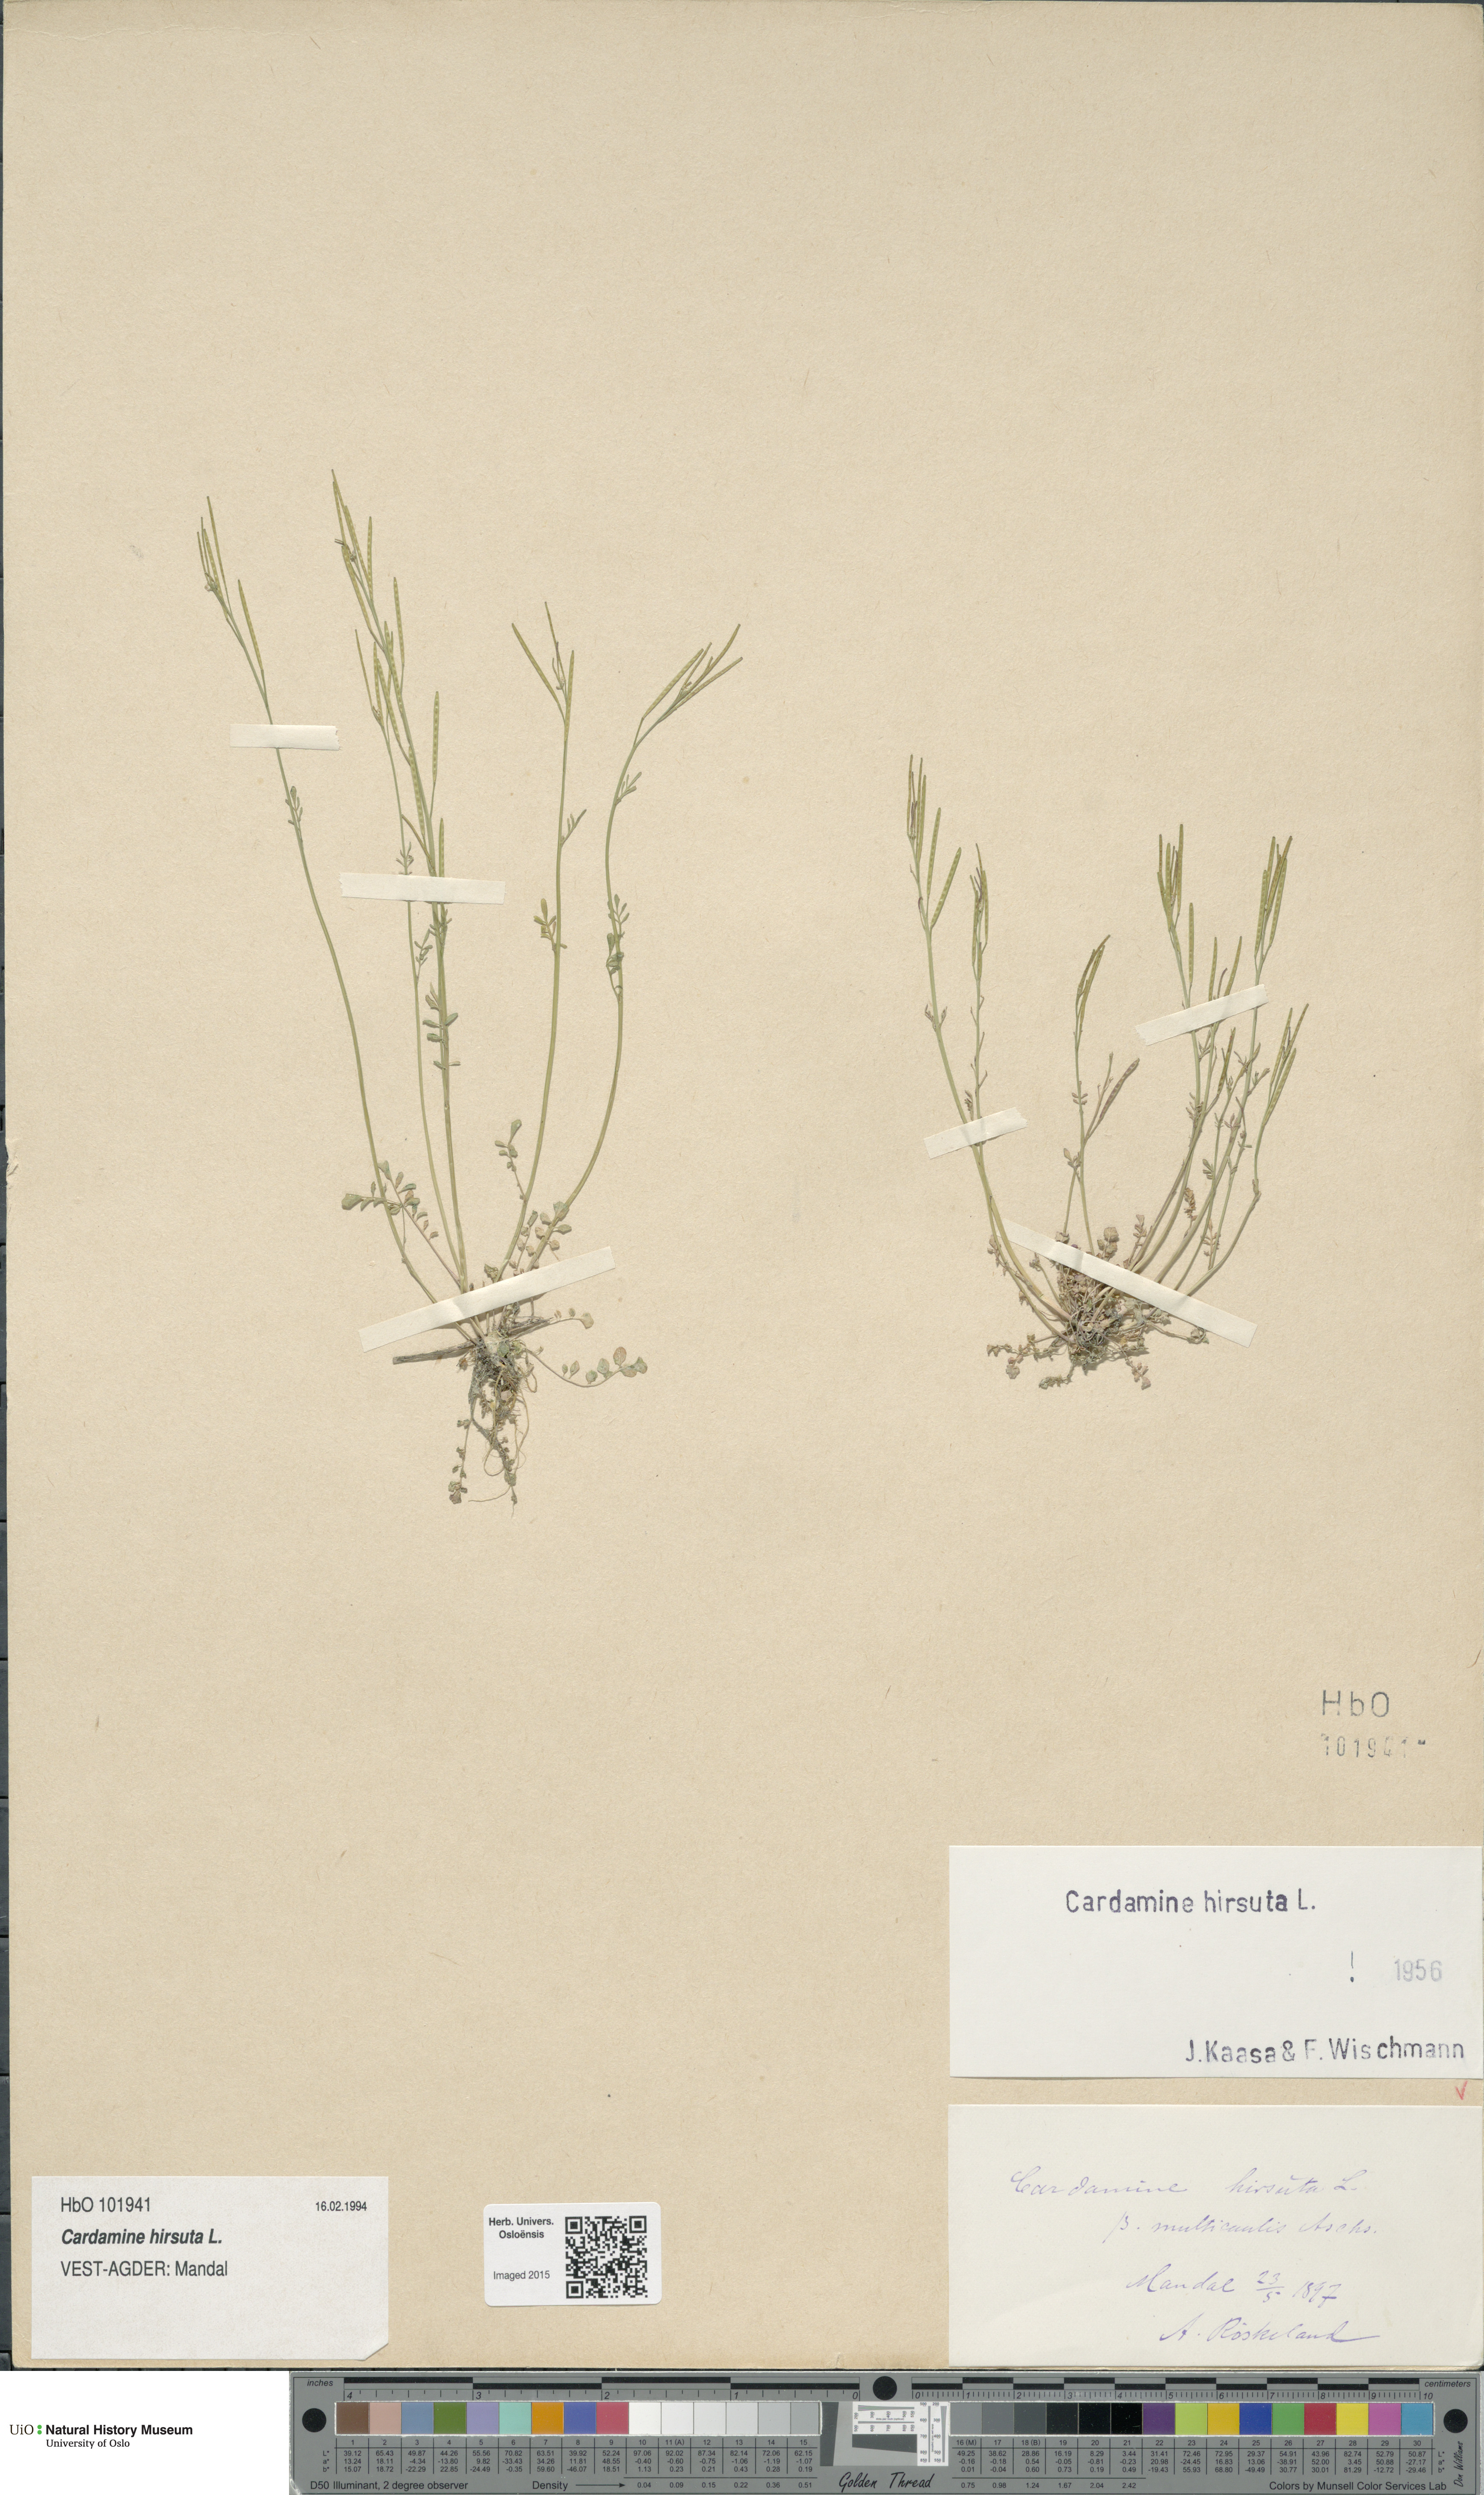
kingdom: Plantae
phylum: Tracheophyta
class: Magnoliopsida
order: Brassicales
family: Brassicaceae
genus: Cardamine
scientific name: Cardamine hirsuta
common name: Hairy bittercress
